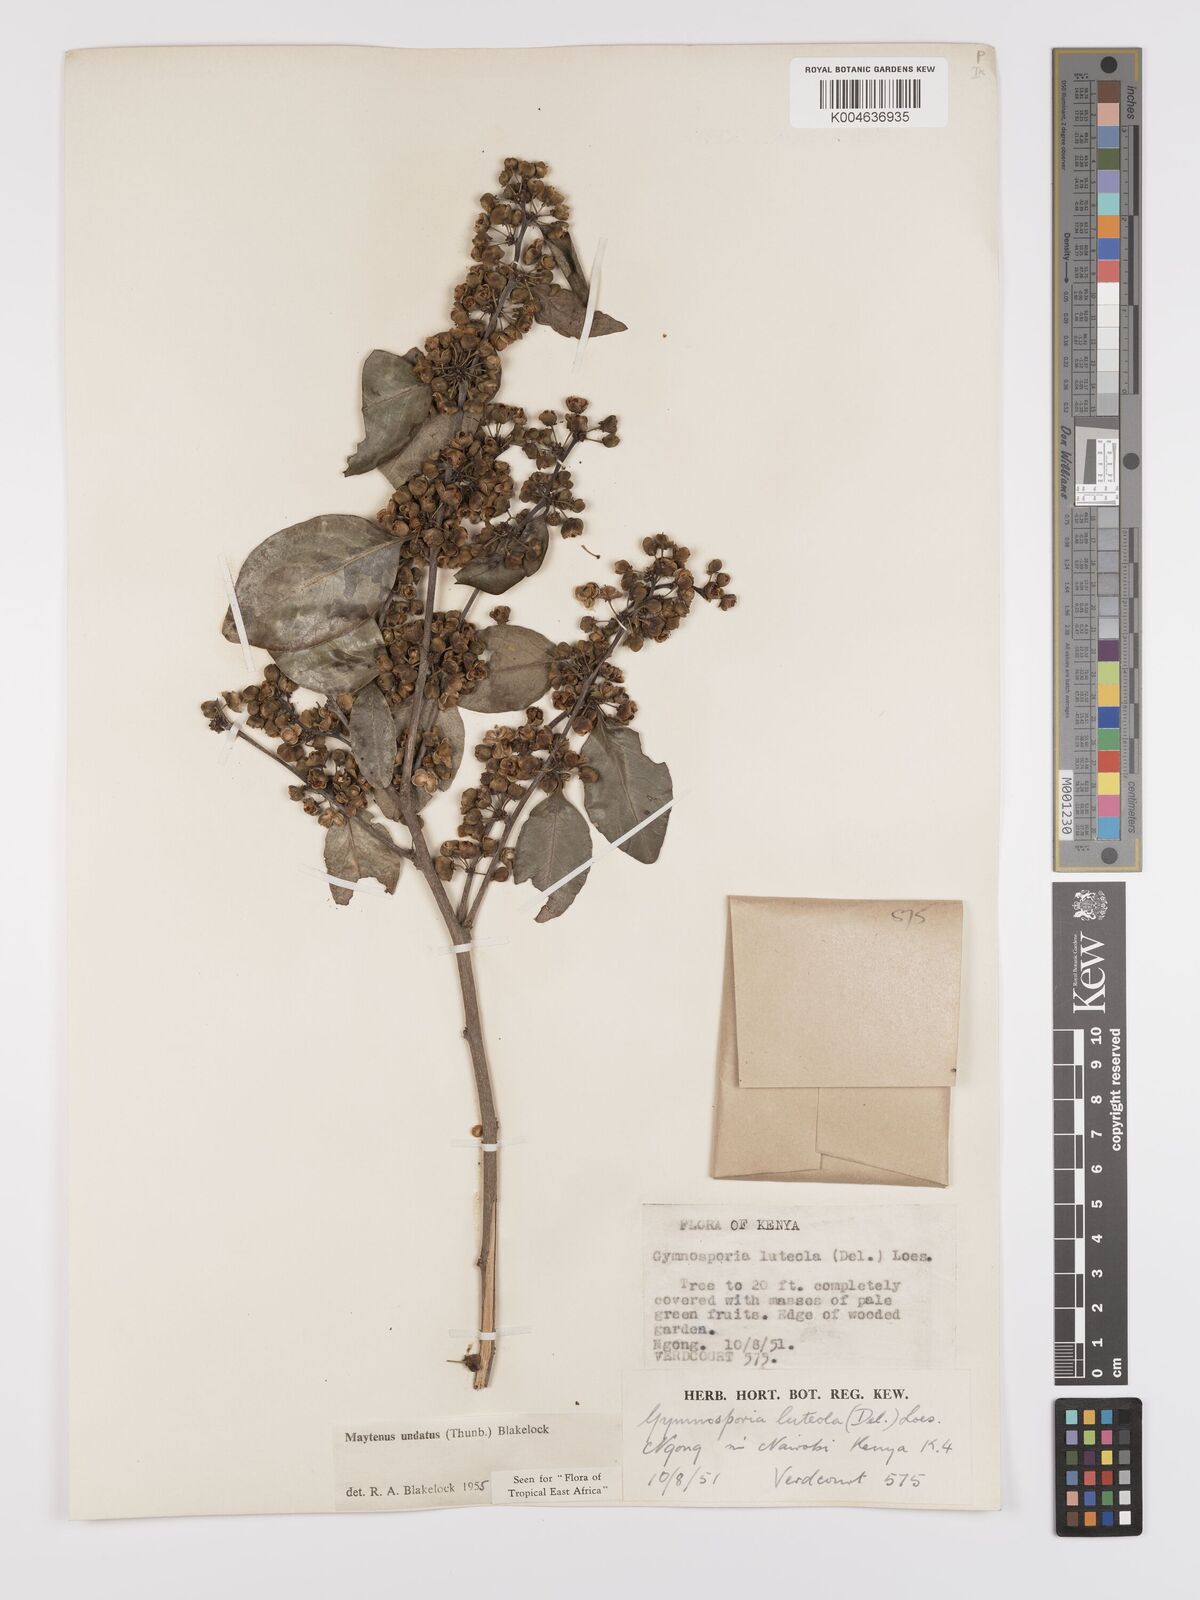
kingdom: Plantae
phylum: Tracheophyta
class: Magnoliopsida
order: Celastrales
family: Celastraceae
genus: Gymnosporia
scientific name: Gymnosporia undata
